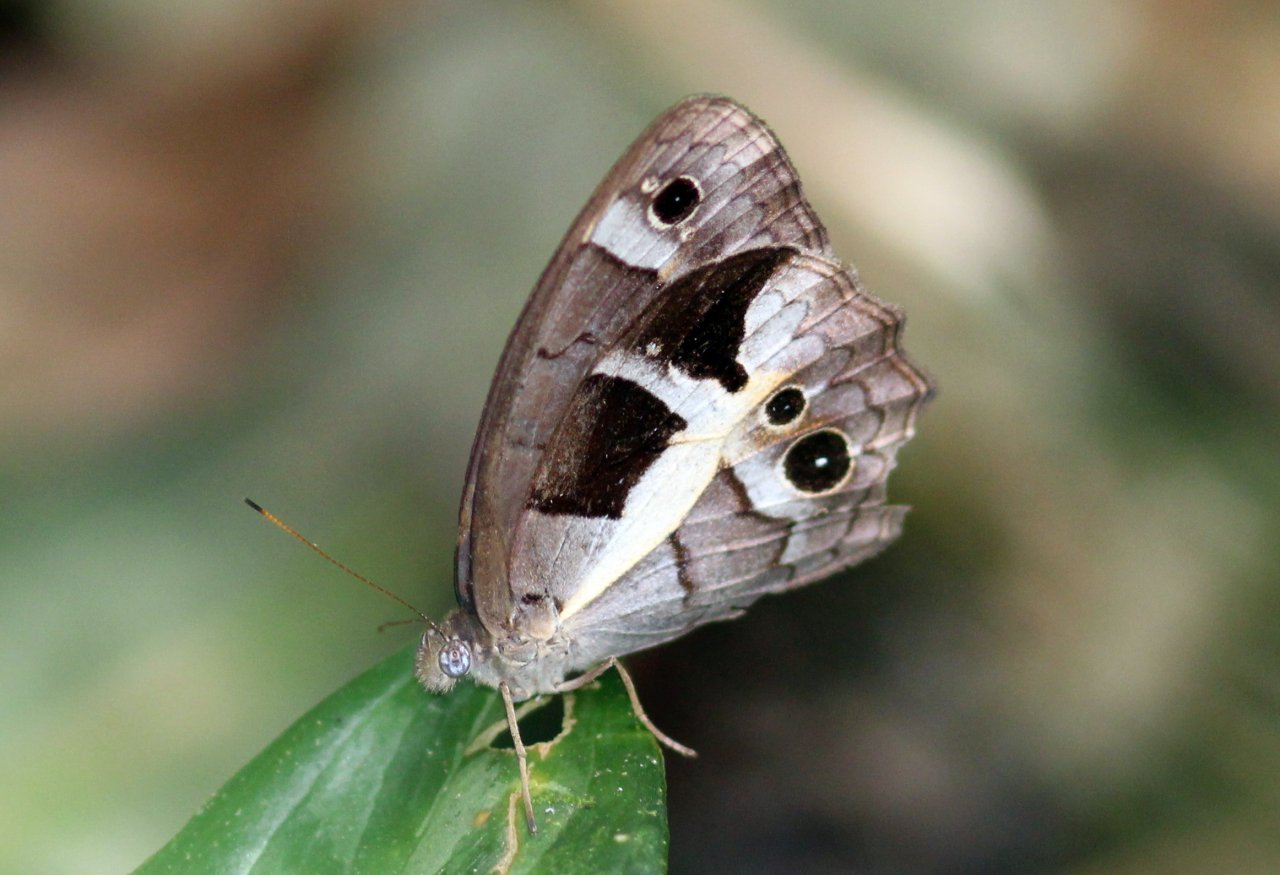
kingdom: Animalia
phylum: Arthropoda
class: Insecta
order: Lepidoptera
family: Nymphalidae
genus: Posttaygetis
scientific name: Posttaygetis penelea
